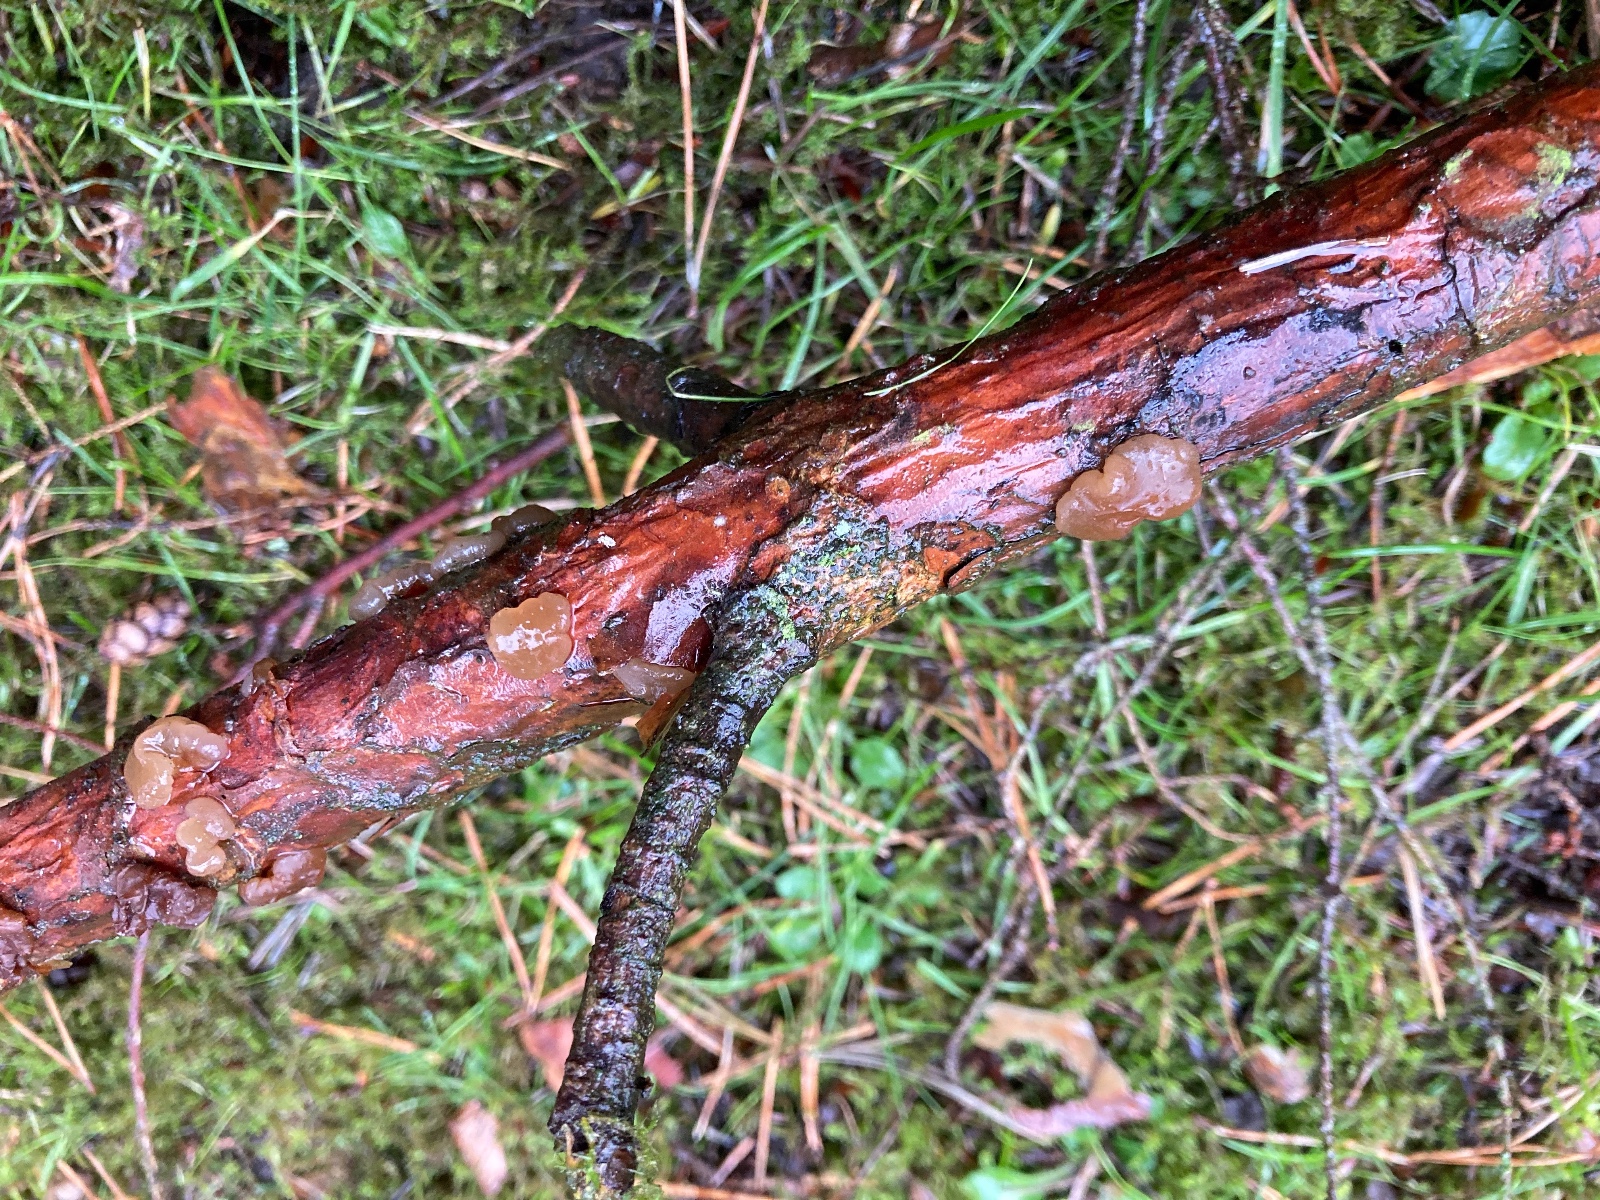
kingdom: Fungi
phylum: Basidiomycota
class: Agaricomycetes
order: Auriculariales
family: Auriculariaceae
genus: Exidia
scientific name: Exidia saccharina
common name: kandis-bævretop
